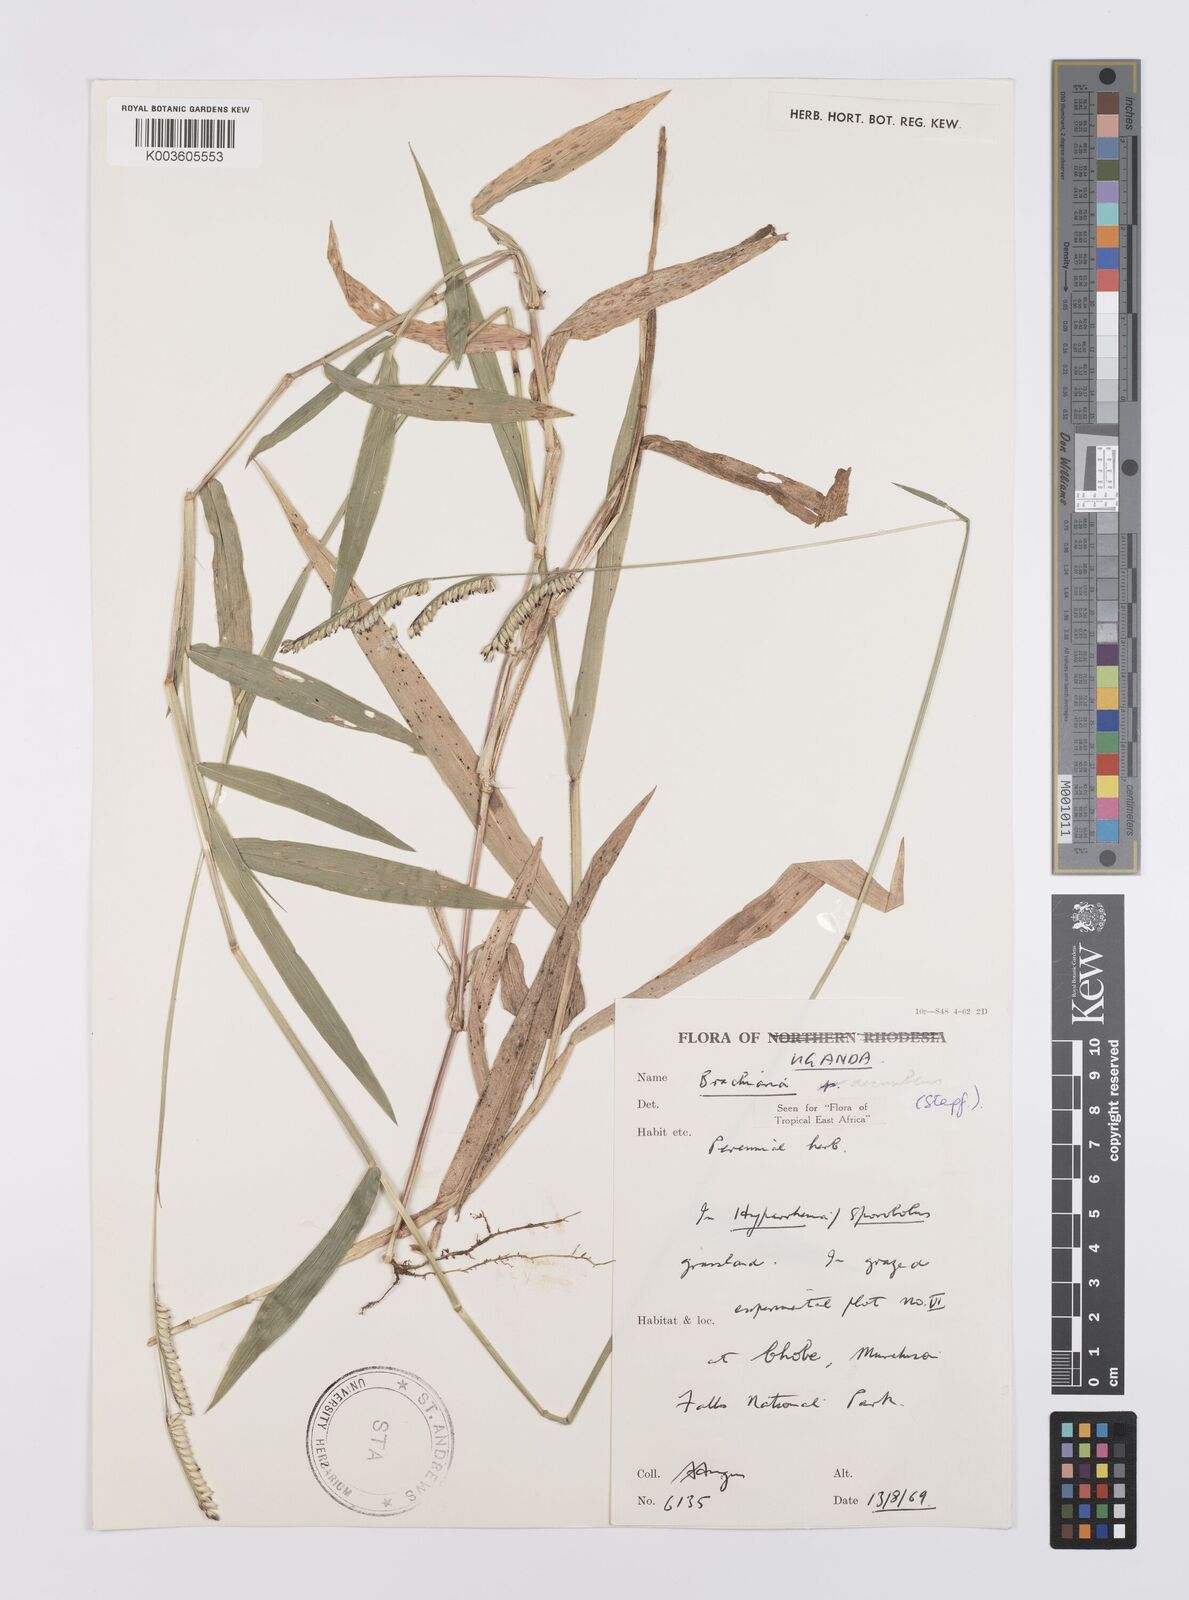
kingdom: Plantae
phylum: Tracheophyta
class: Liliopsida
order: Poales
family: Poaceae
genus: Urochloa
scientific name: Urochloa eminii
